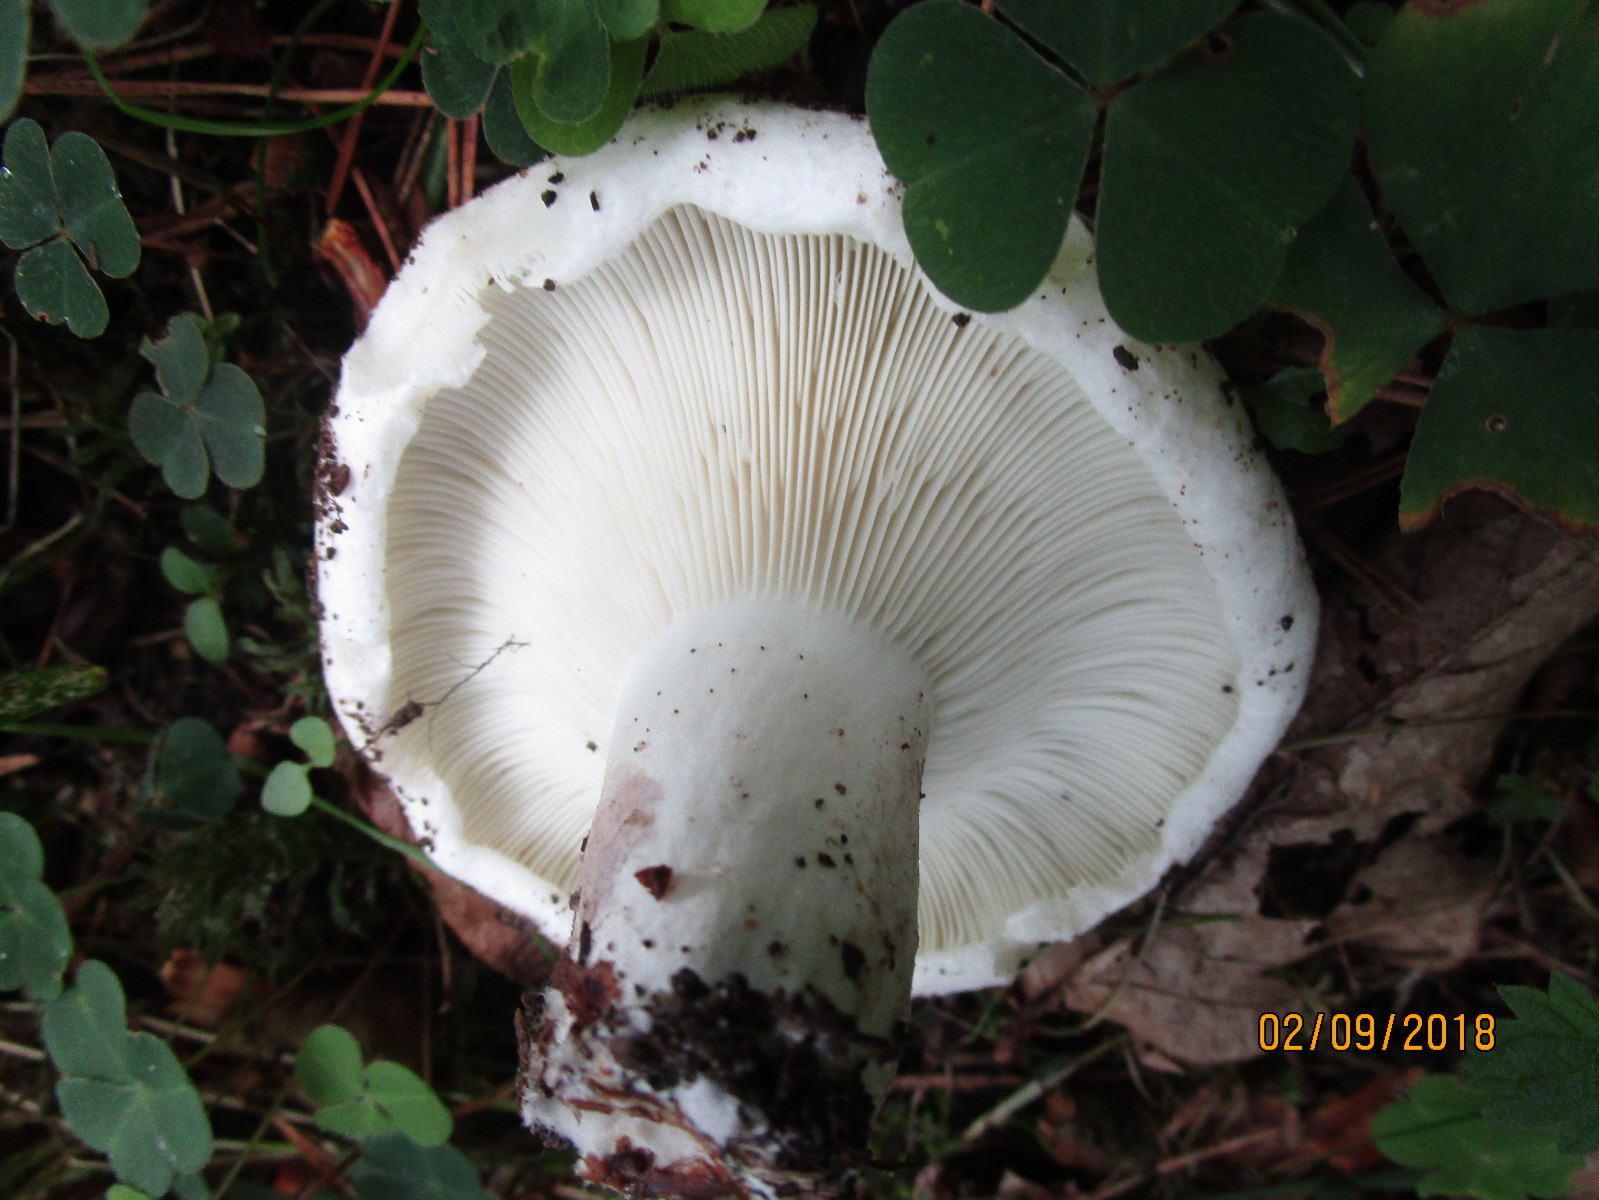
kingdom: Fungi
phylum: Basidiomycota
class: Agaricomycetes
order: Russulales
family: Russulaceae
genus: Russula
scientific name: Russula chloroides
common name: grønhalset tragt-skørhat
